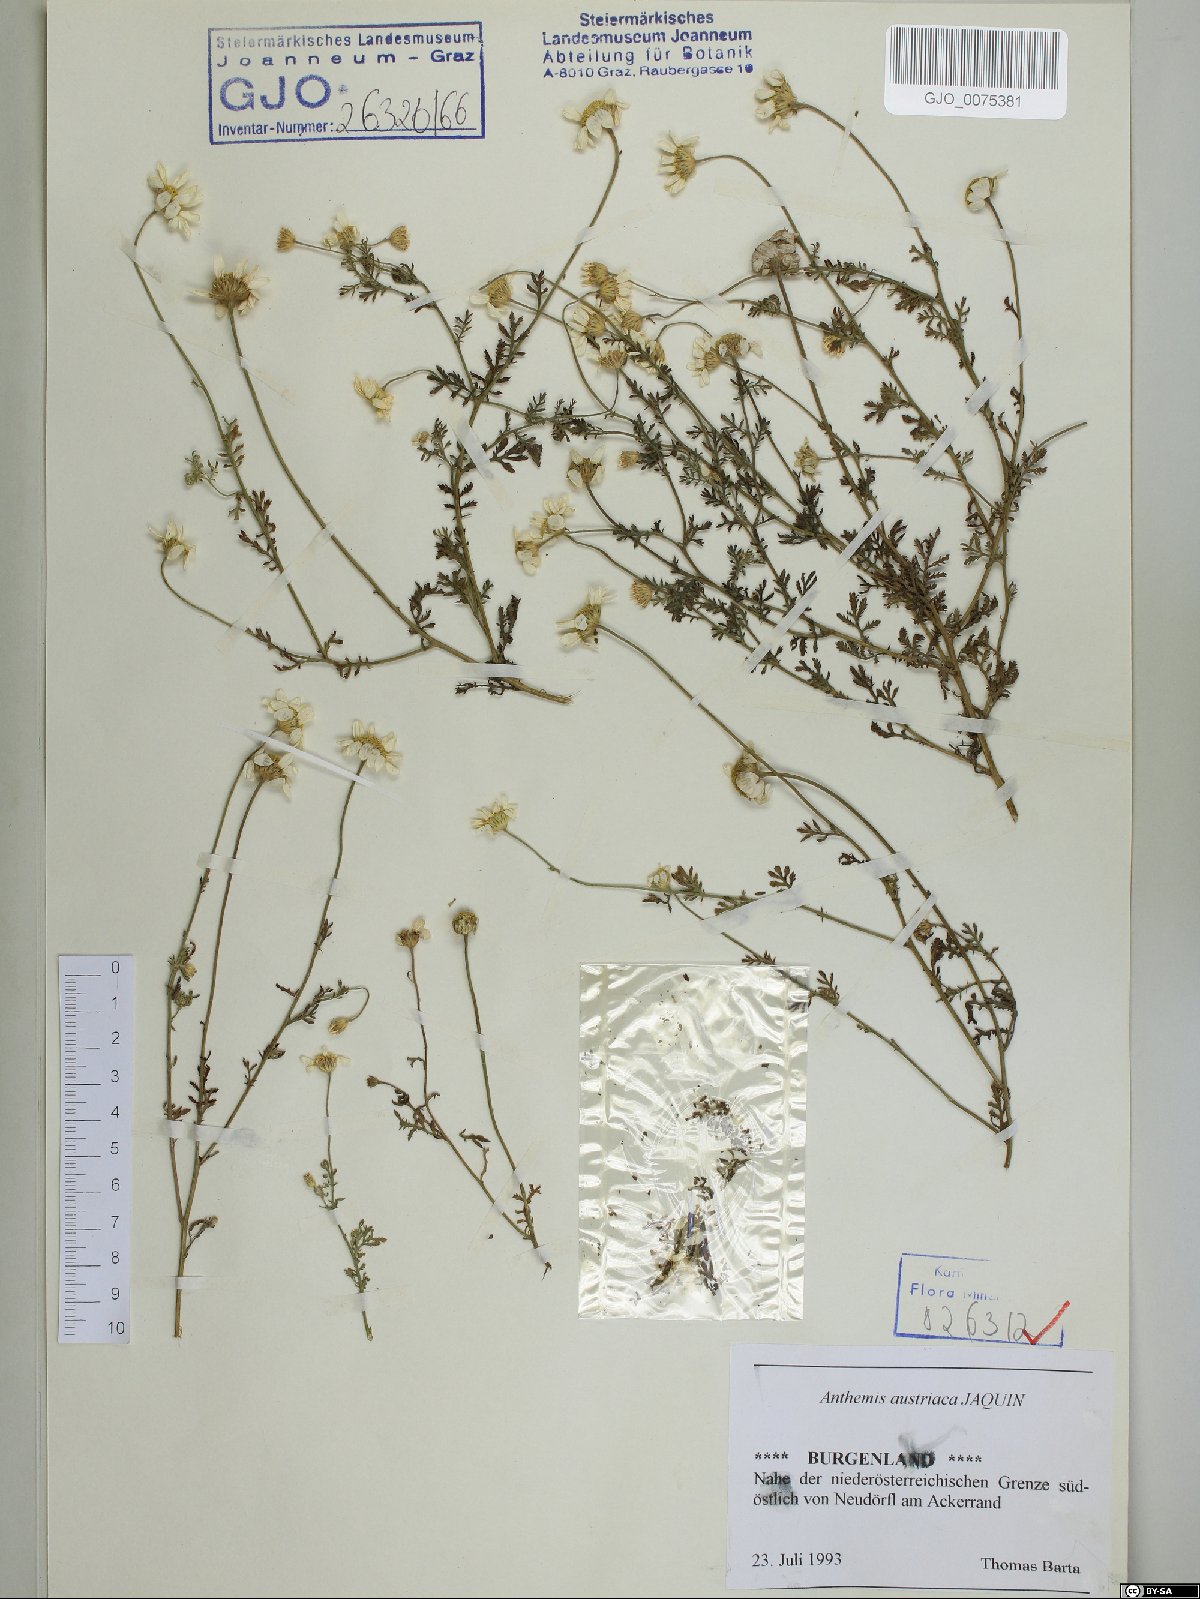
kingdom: Plantae
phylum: Tracheophyta
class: Magnoliopsida
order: Asterales
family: Asteraceae
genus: Cota
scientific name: Cota austriaca
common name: Austrian chamomile
